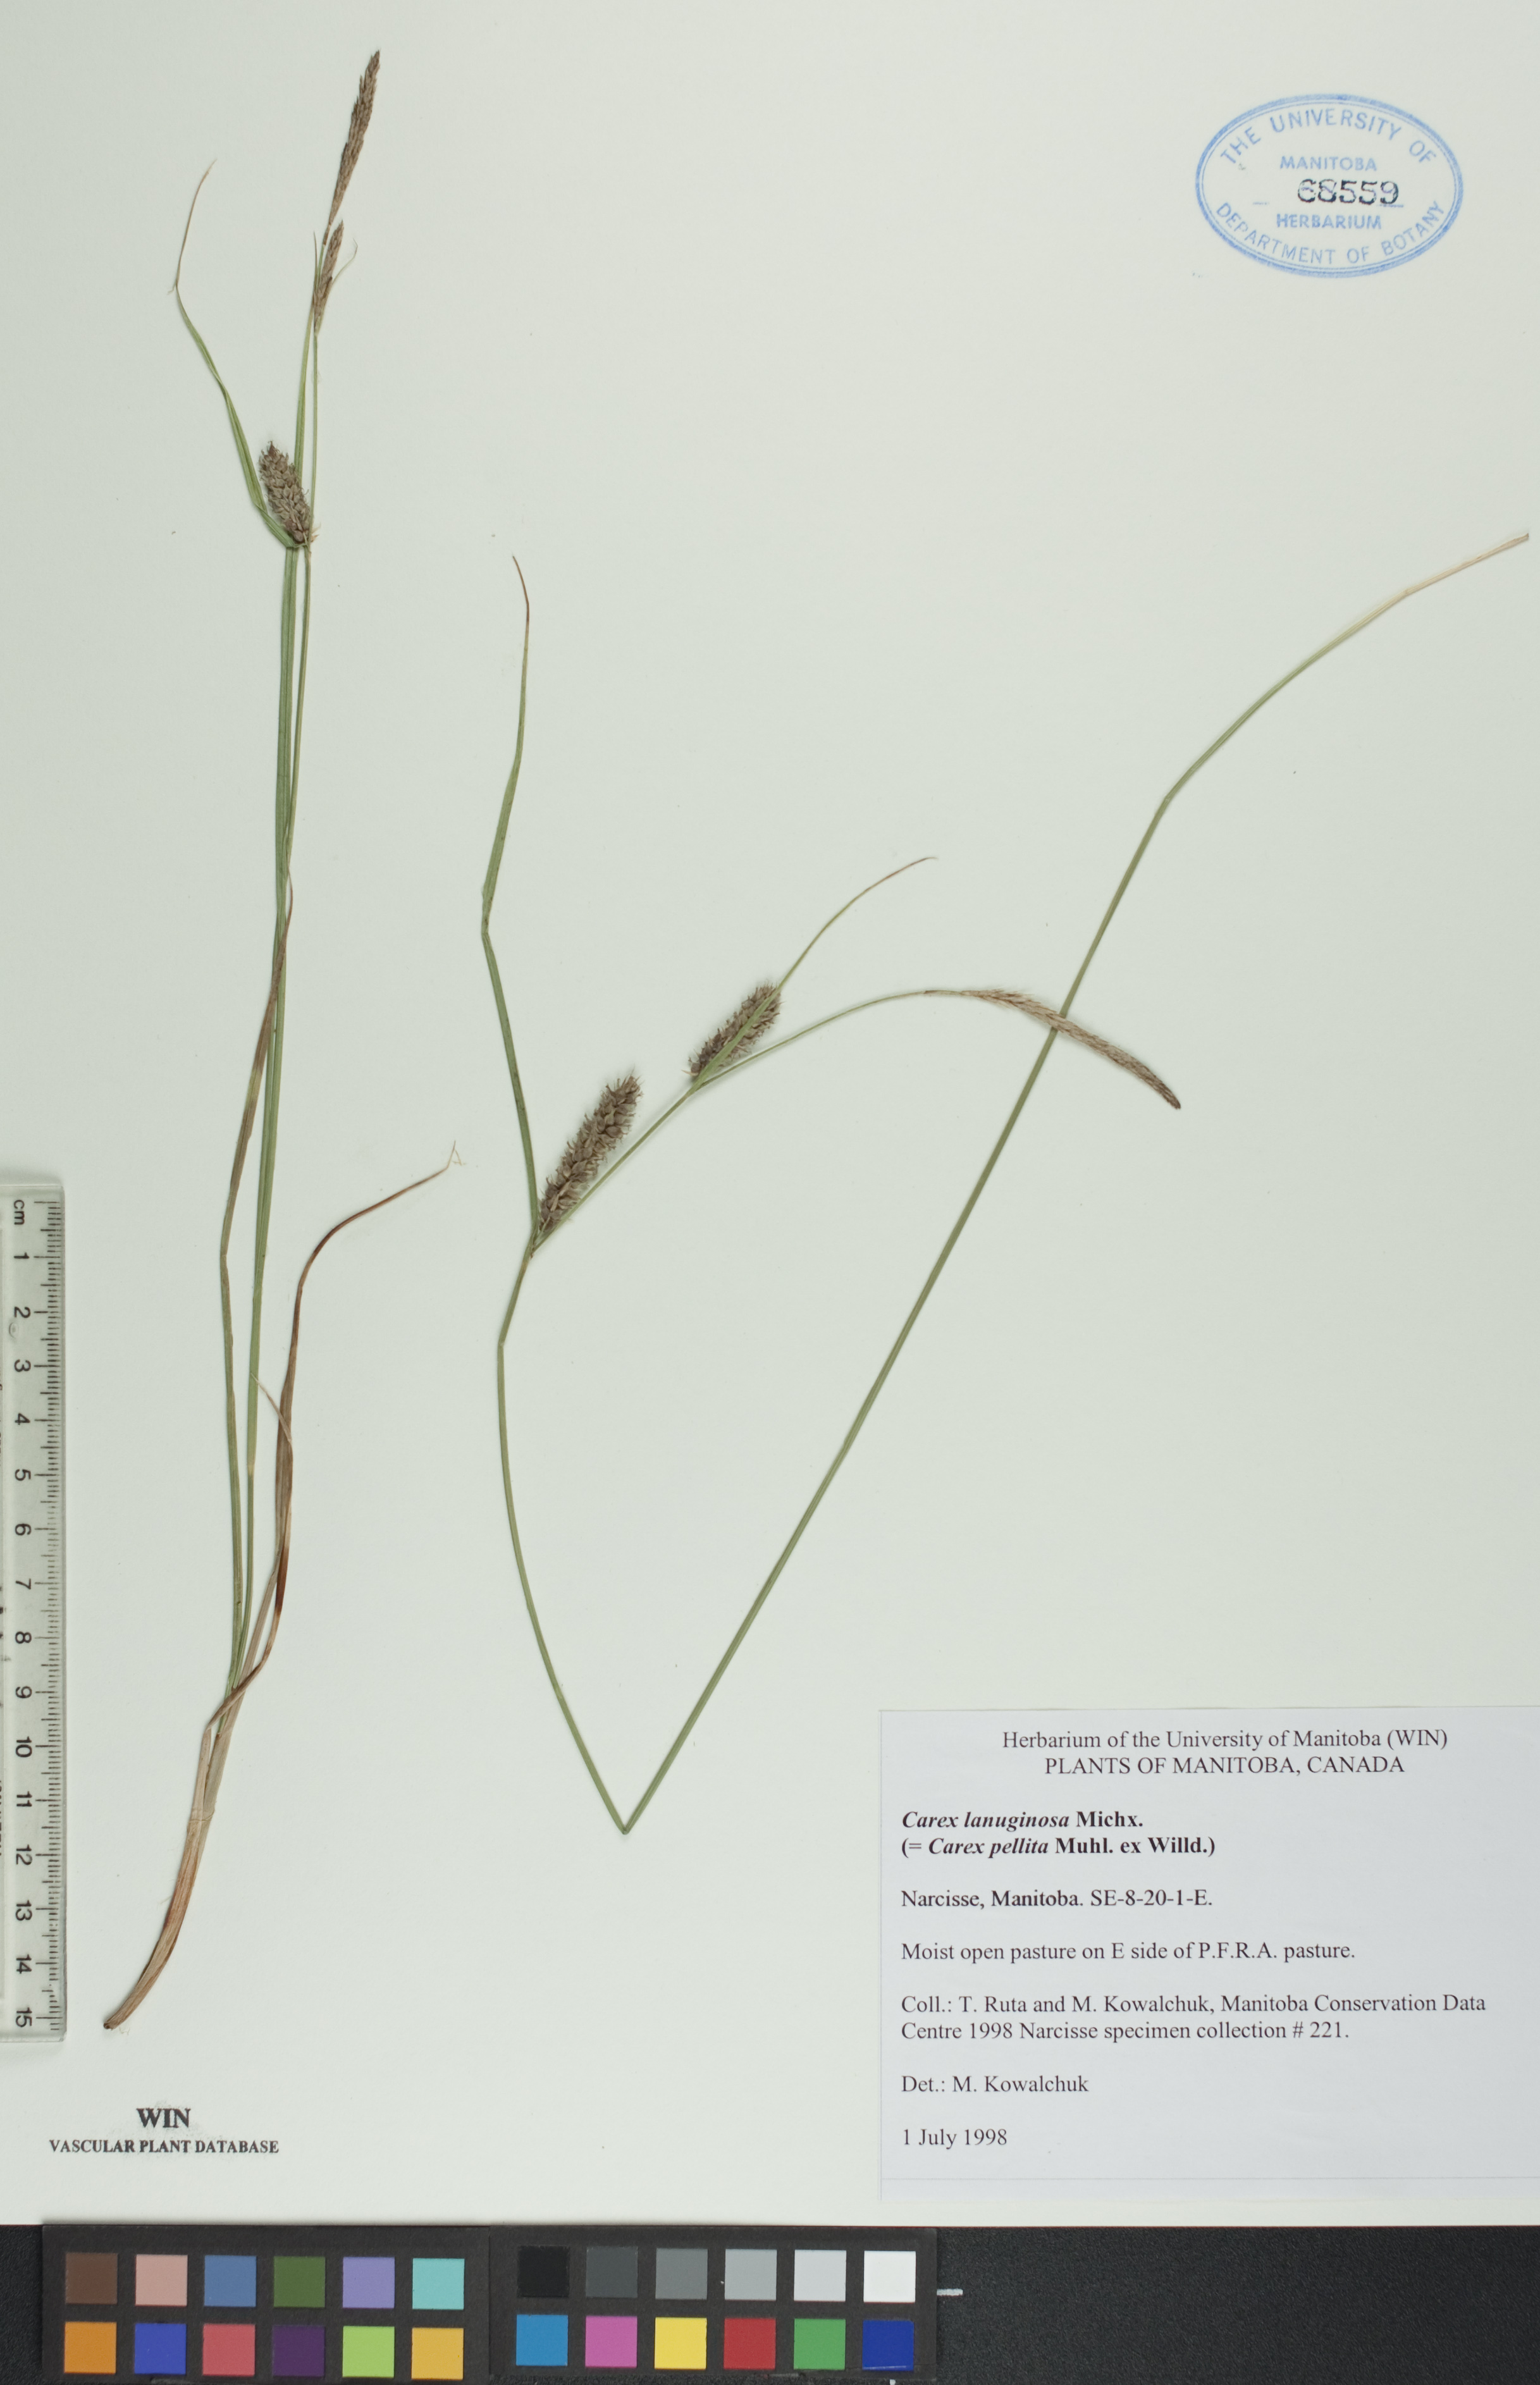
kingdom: Plantae
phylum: Tracheophyta
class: Liliopsida
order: Poales
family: Cyperaceae
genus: Carex
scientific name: Carex lasiocarpa
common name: Slender sedge
